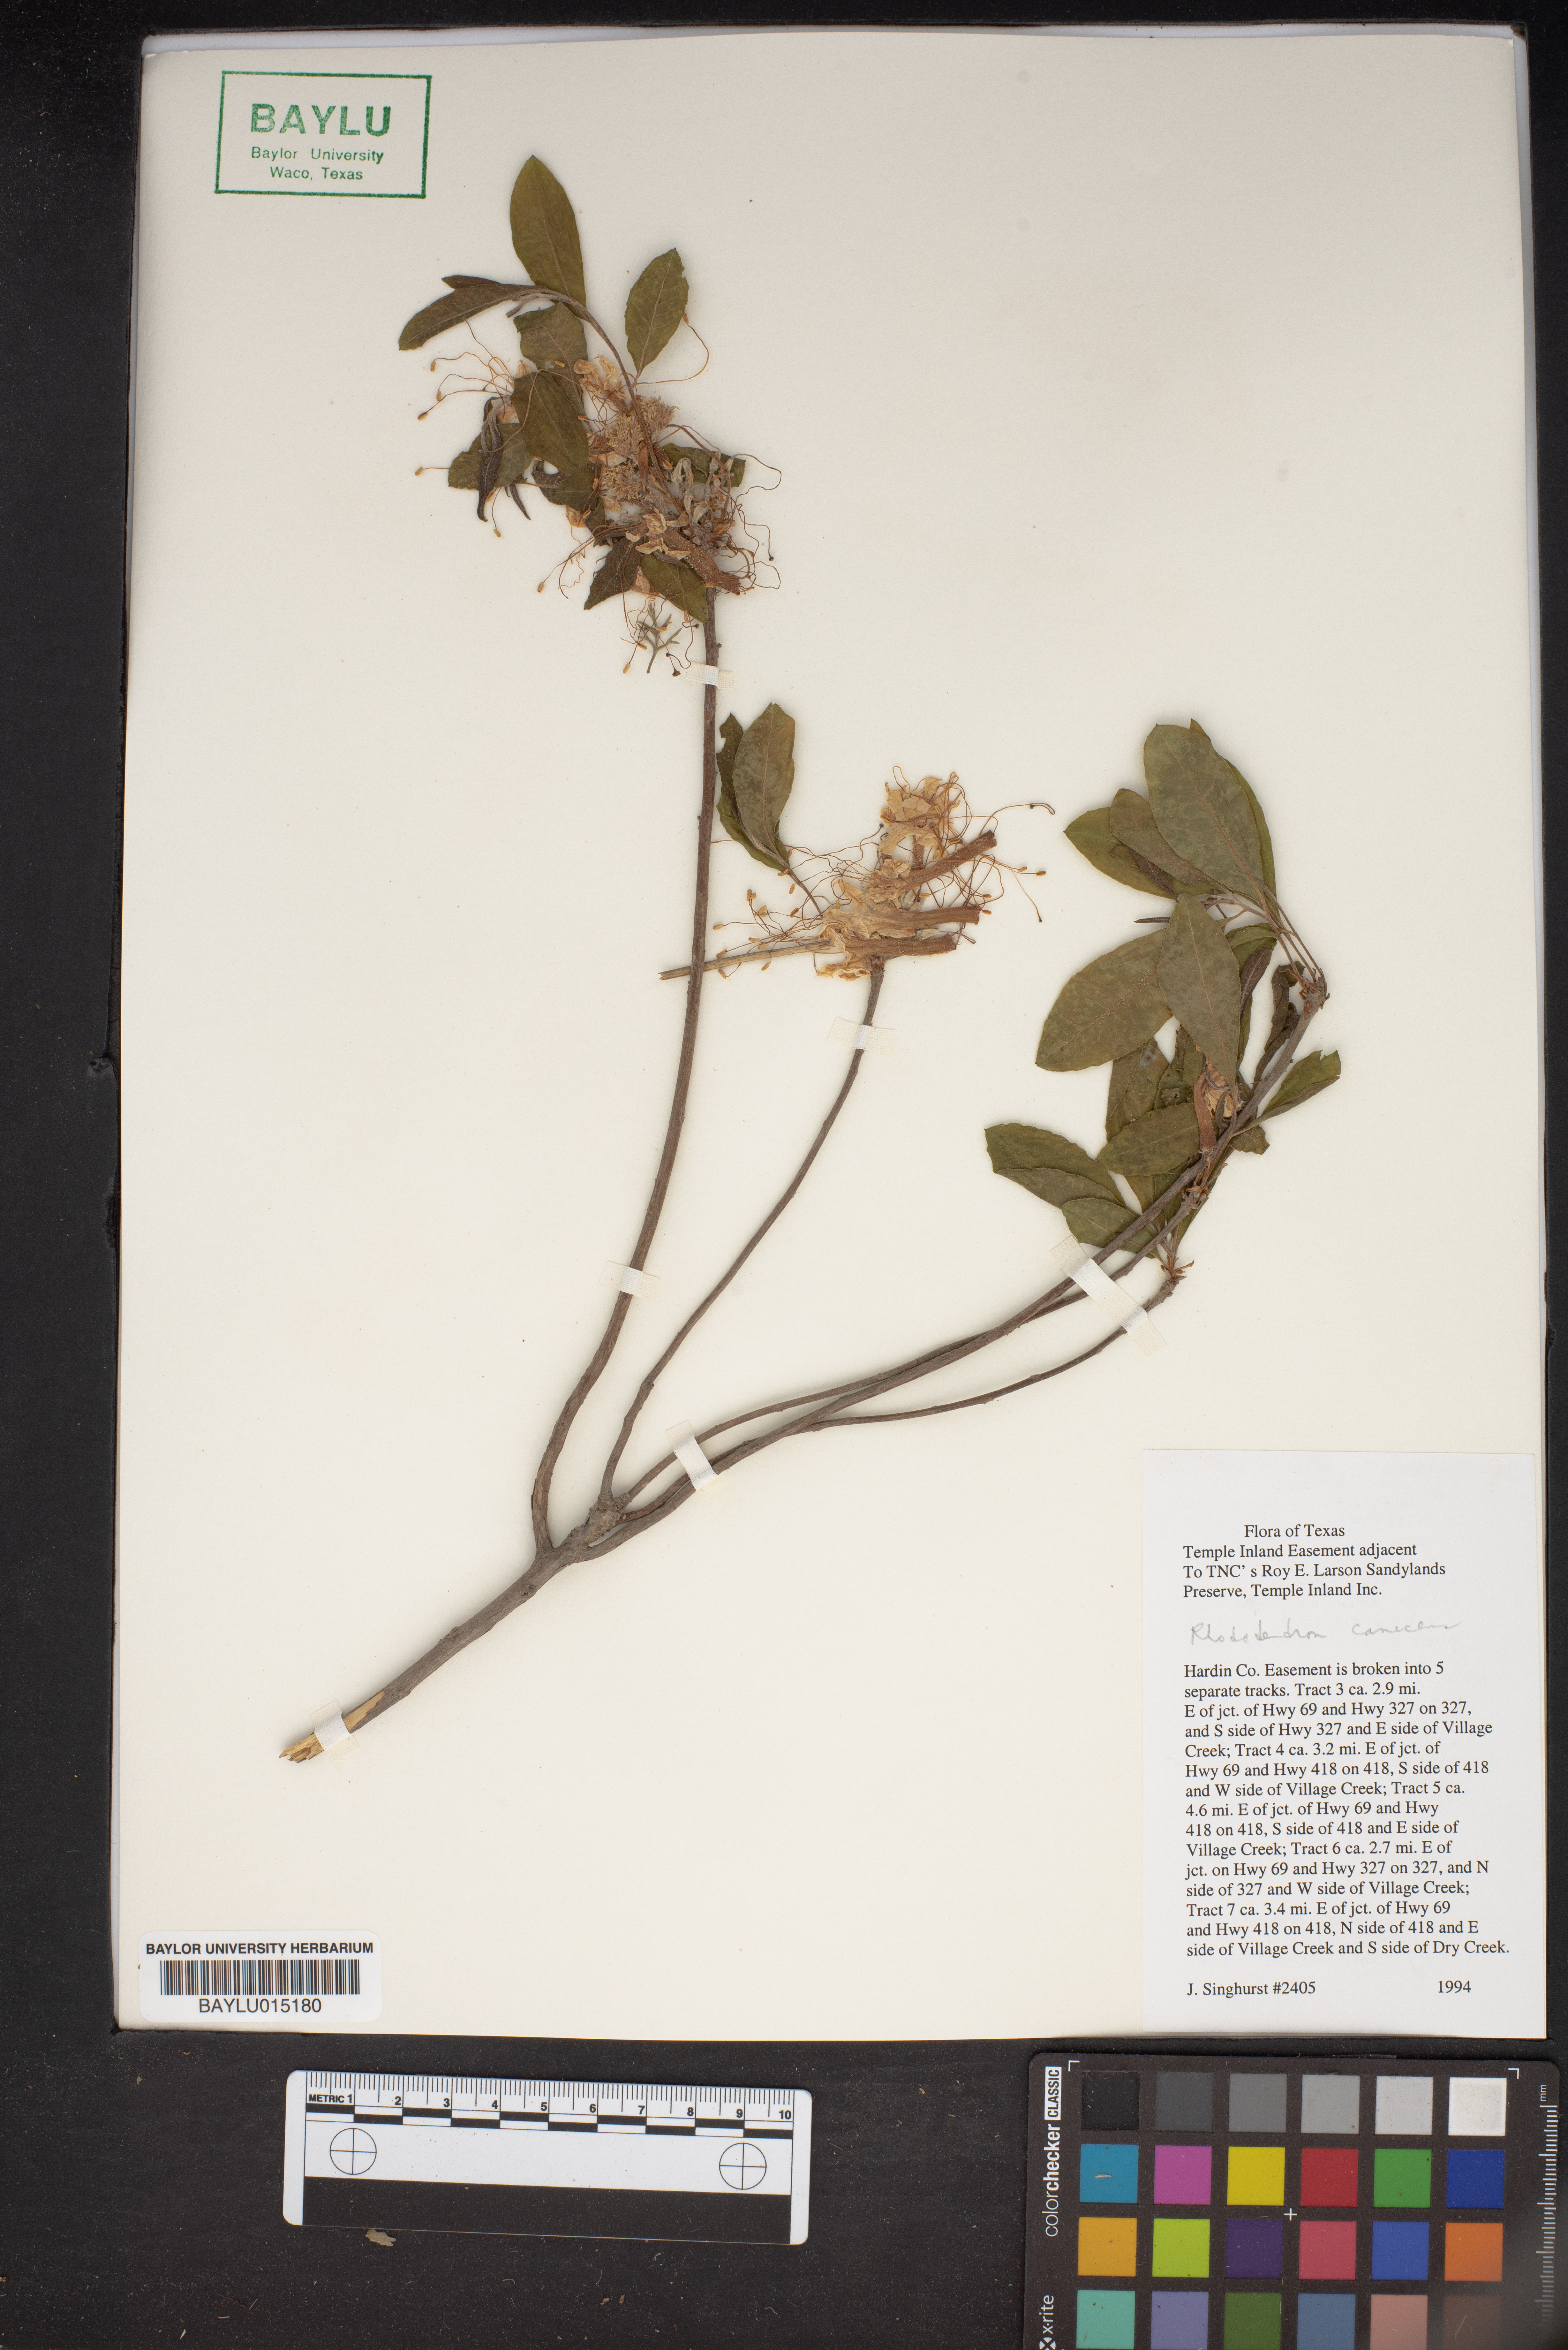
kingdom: Plantae
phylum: Tracheophyta
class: Magnoliopsida
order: Ericales
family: Ericaceae
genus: Rhododendron
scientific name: Rhododendron canescens
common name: Mountain azalea
